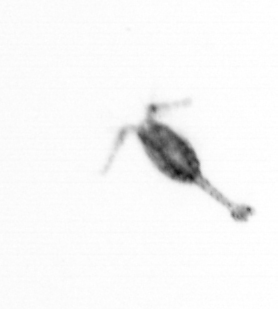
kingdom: Animalia
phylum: Arthropoda
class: Copepoda
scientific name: Copepoda
